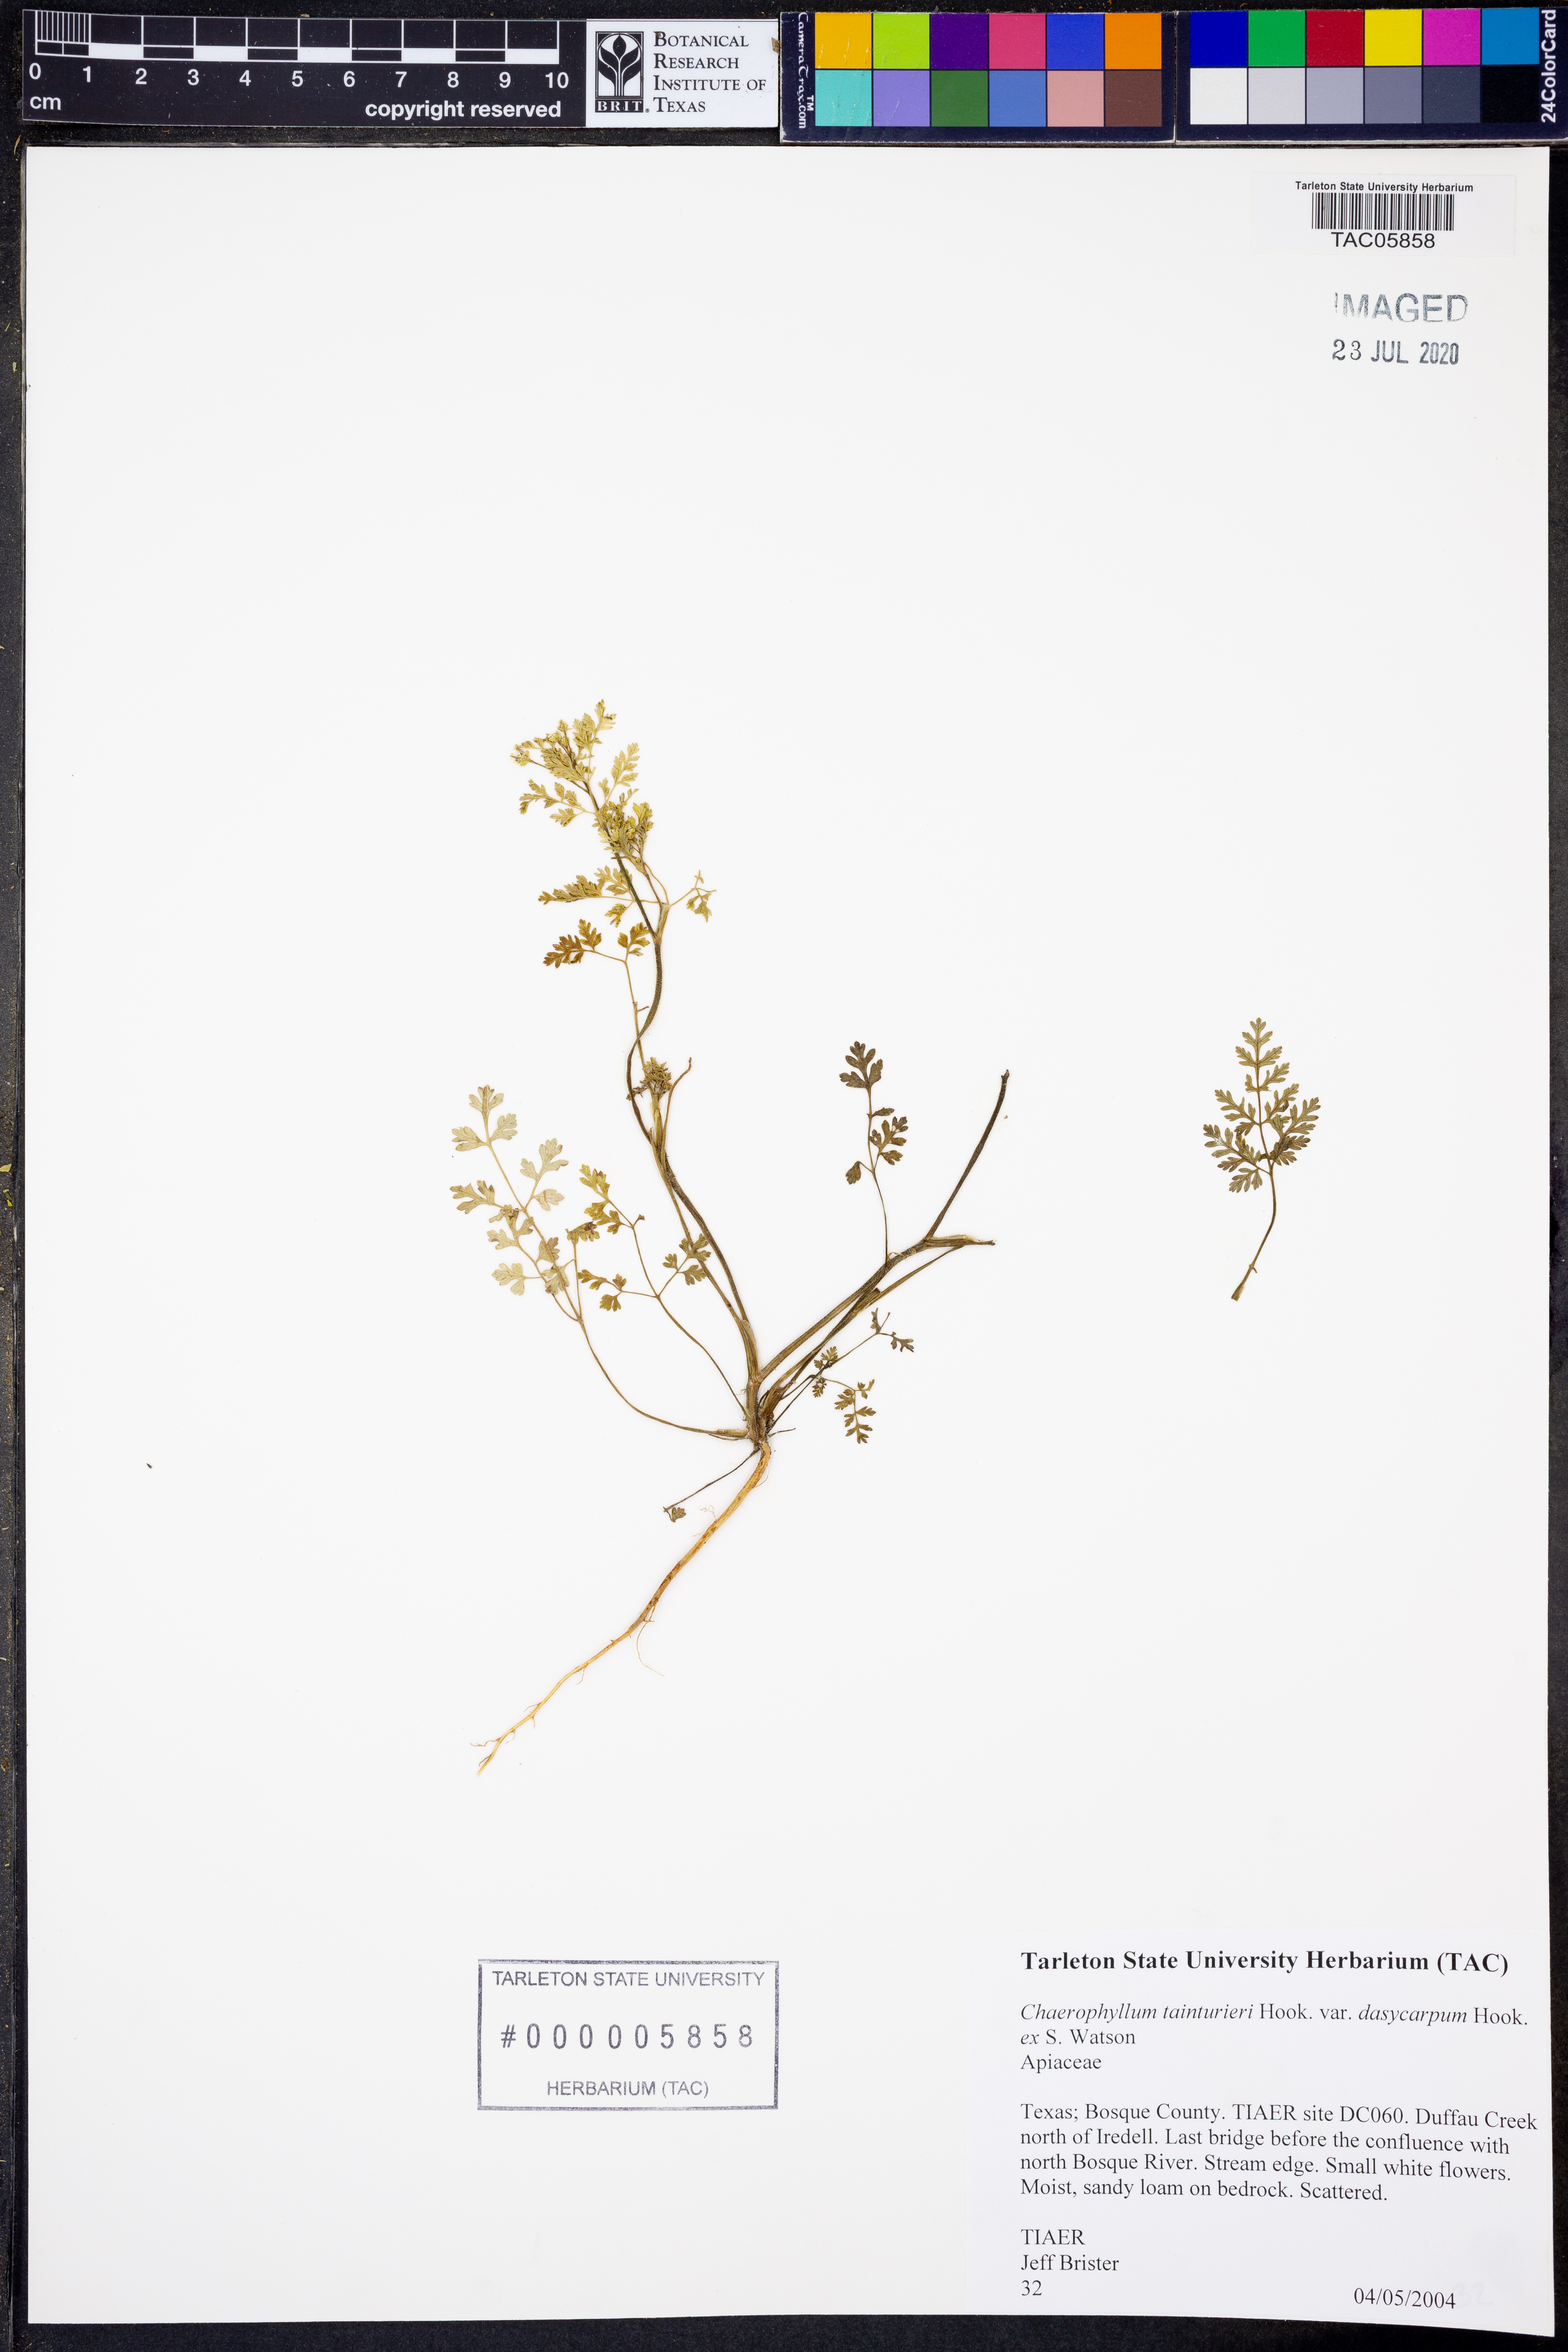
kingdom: Plantae
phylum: Tracheophyta
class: Magnoliopsida
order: Apiales
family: Apiaceae
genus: Chaerophyllum
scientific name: Chaerophyllum dasycarpum
